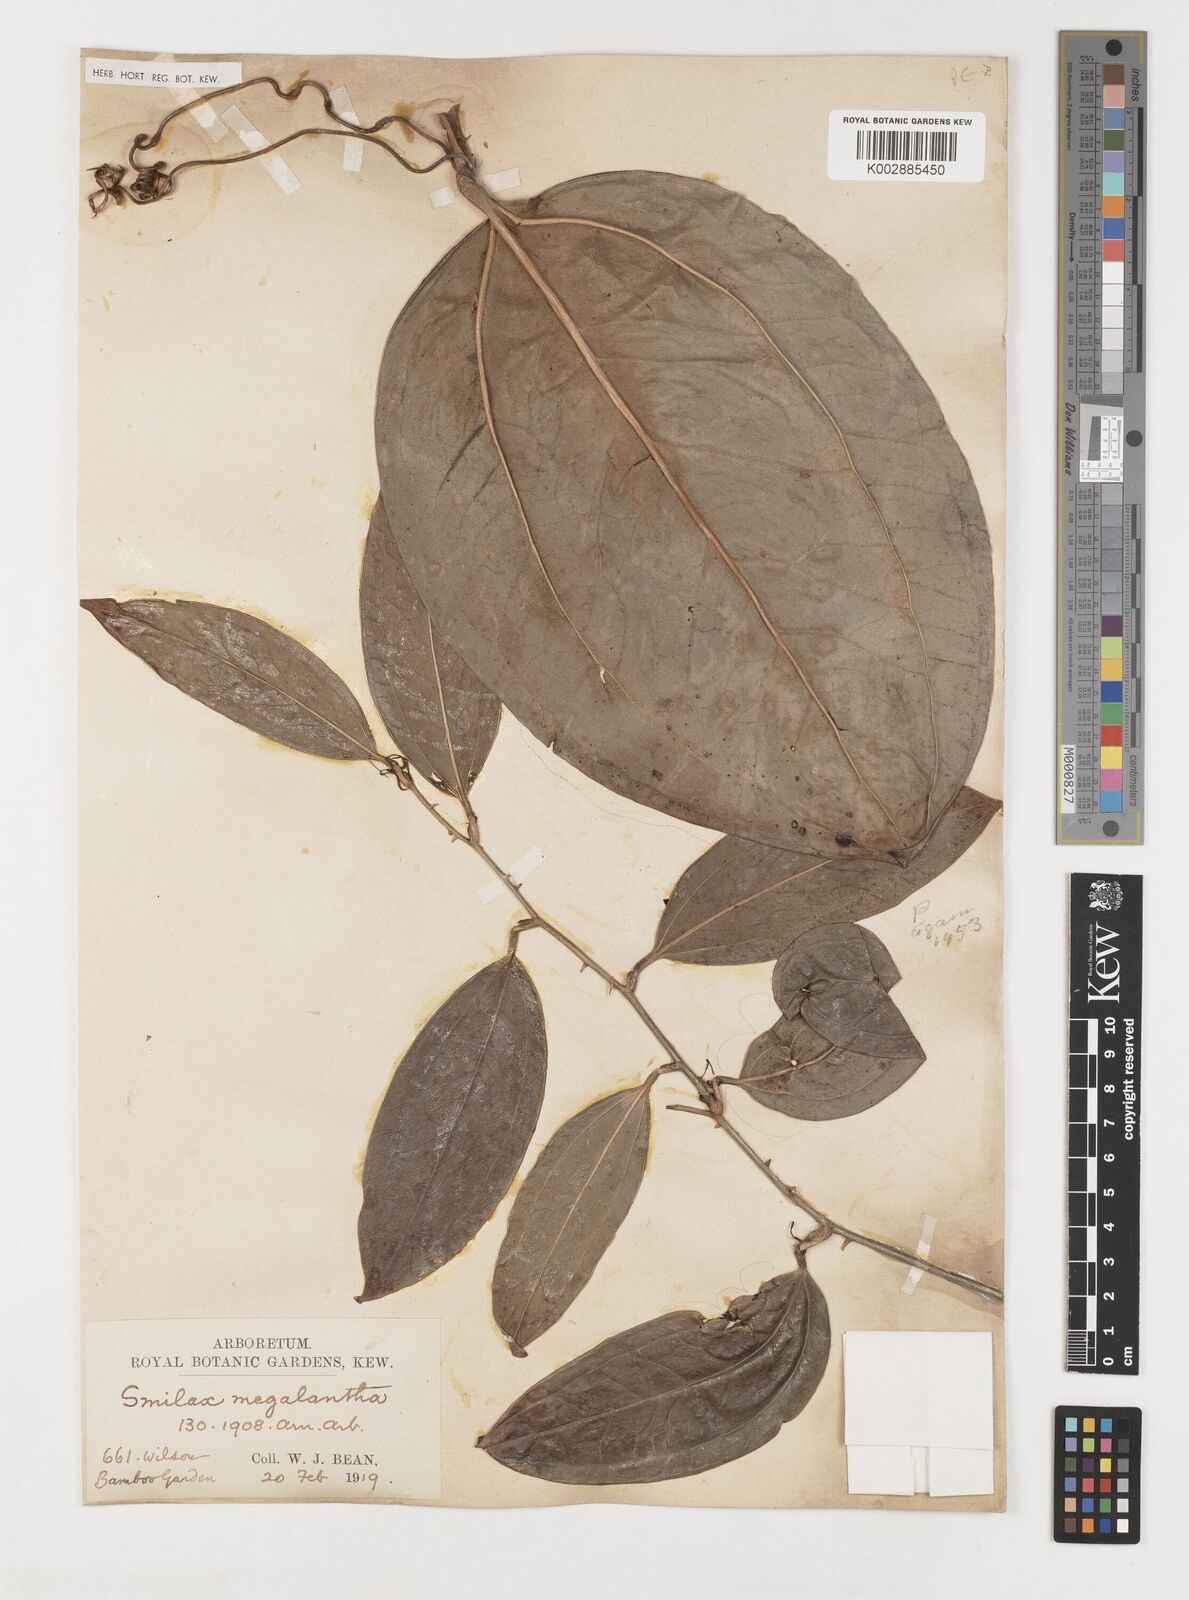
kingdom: Plantae
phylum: Tracheophyta
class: Liliopsida
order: Liliales
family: Smilacaceae
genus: Smilax
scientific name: Smilax megalantha
